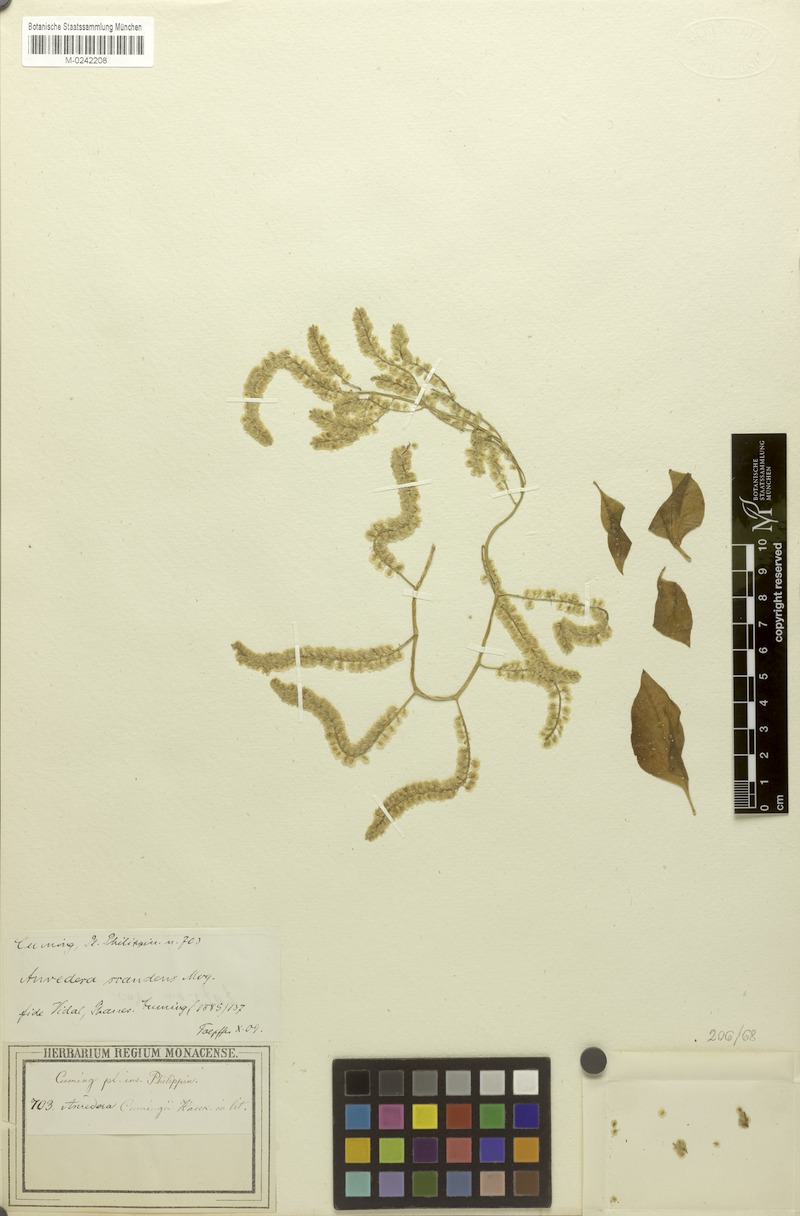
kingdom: Plantae
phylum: Tracheophyta
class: Magnoliopsida
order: Caryophyllales
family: Basellaceae
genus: Anredera
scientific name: Anredera vesicaria
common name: Sacasile
